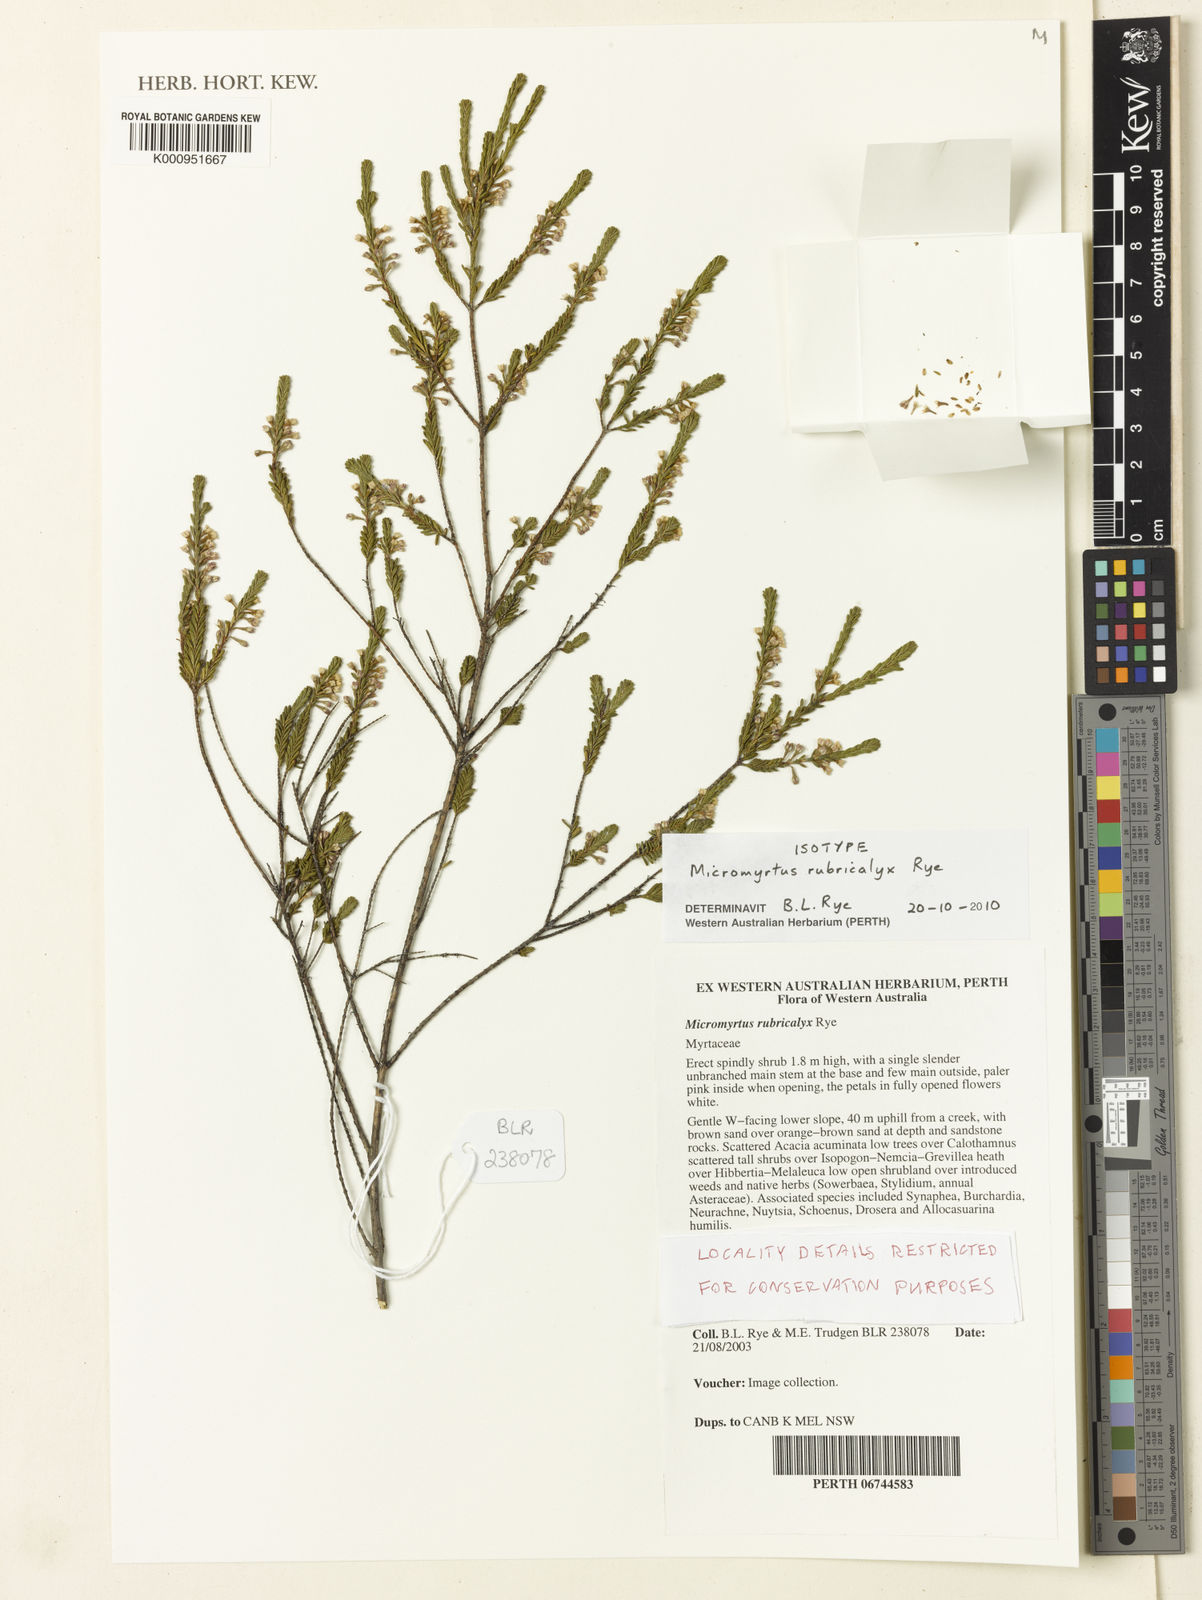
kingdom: Plantae
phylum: Tracheophyta
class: Magnoliopsida
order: Myrtales
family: Myrtaceae
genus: Micromyrtus
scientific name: Micromyrtus
